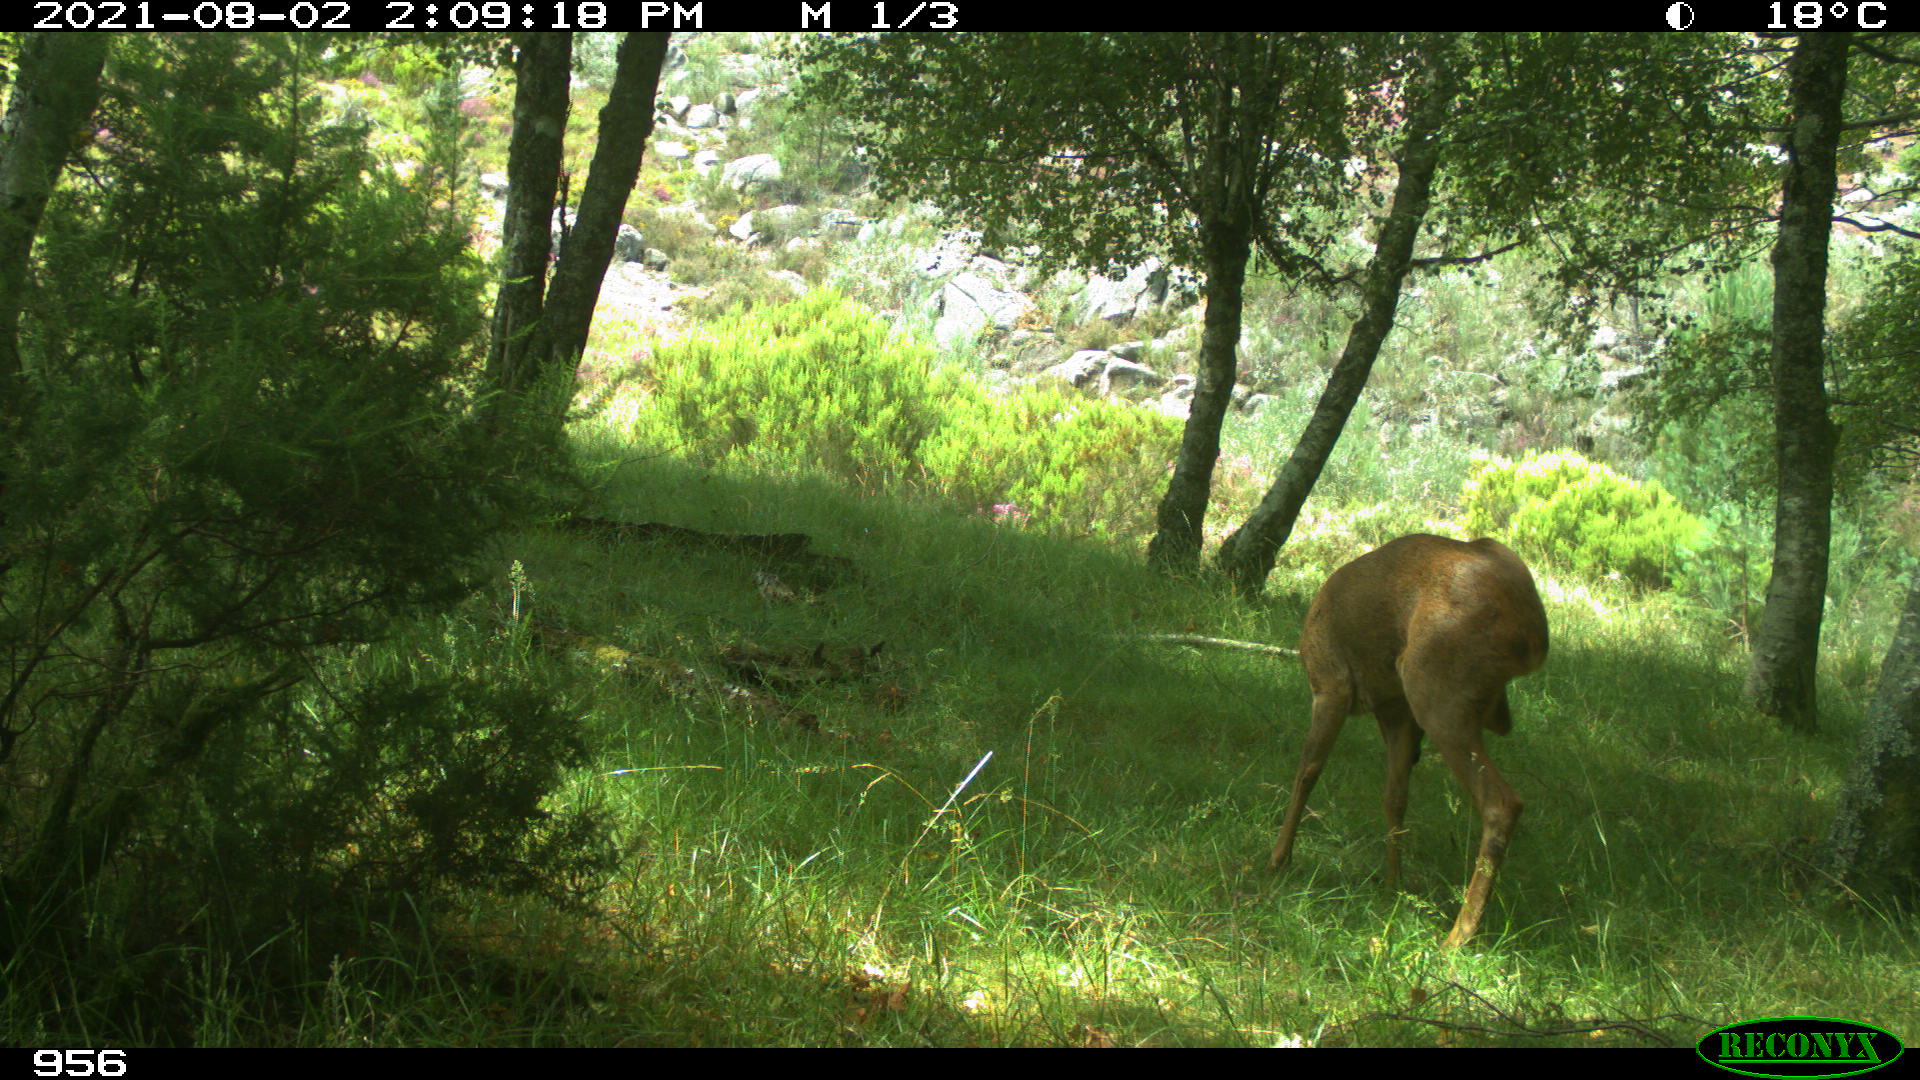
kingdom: Animalia
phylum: Chordata
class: Mammalia
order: Artiodactyla
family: Cervidae
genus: Capreolus
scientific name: Capreolus capreolus
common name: Western roe deer
